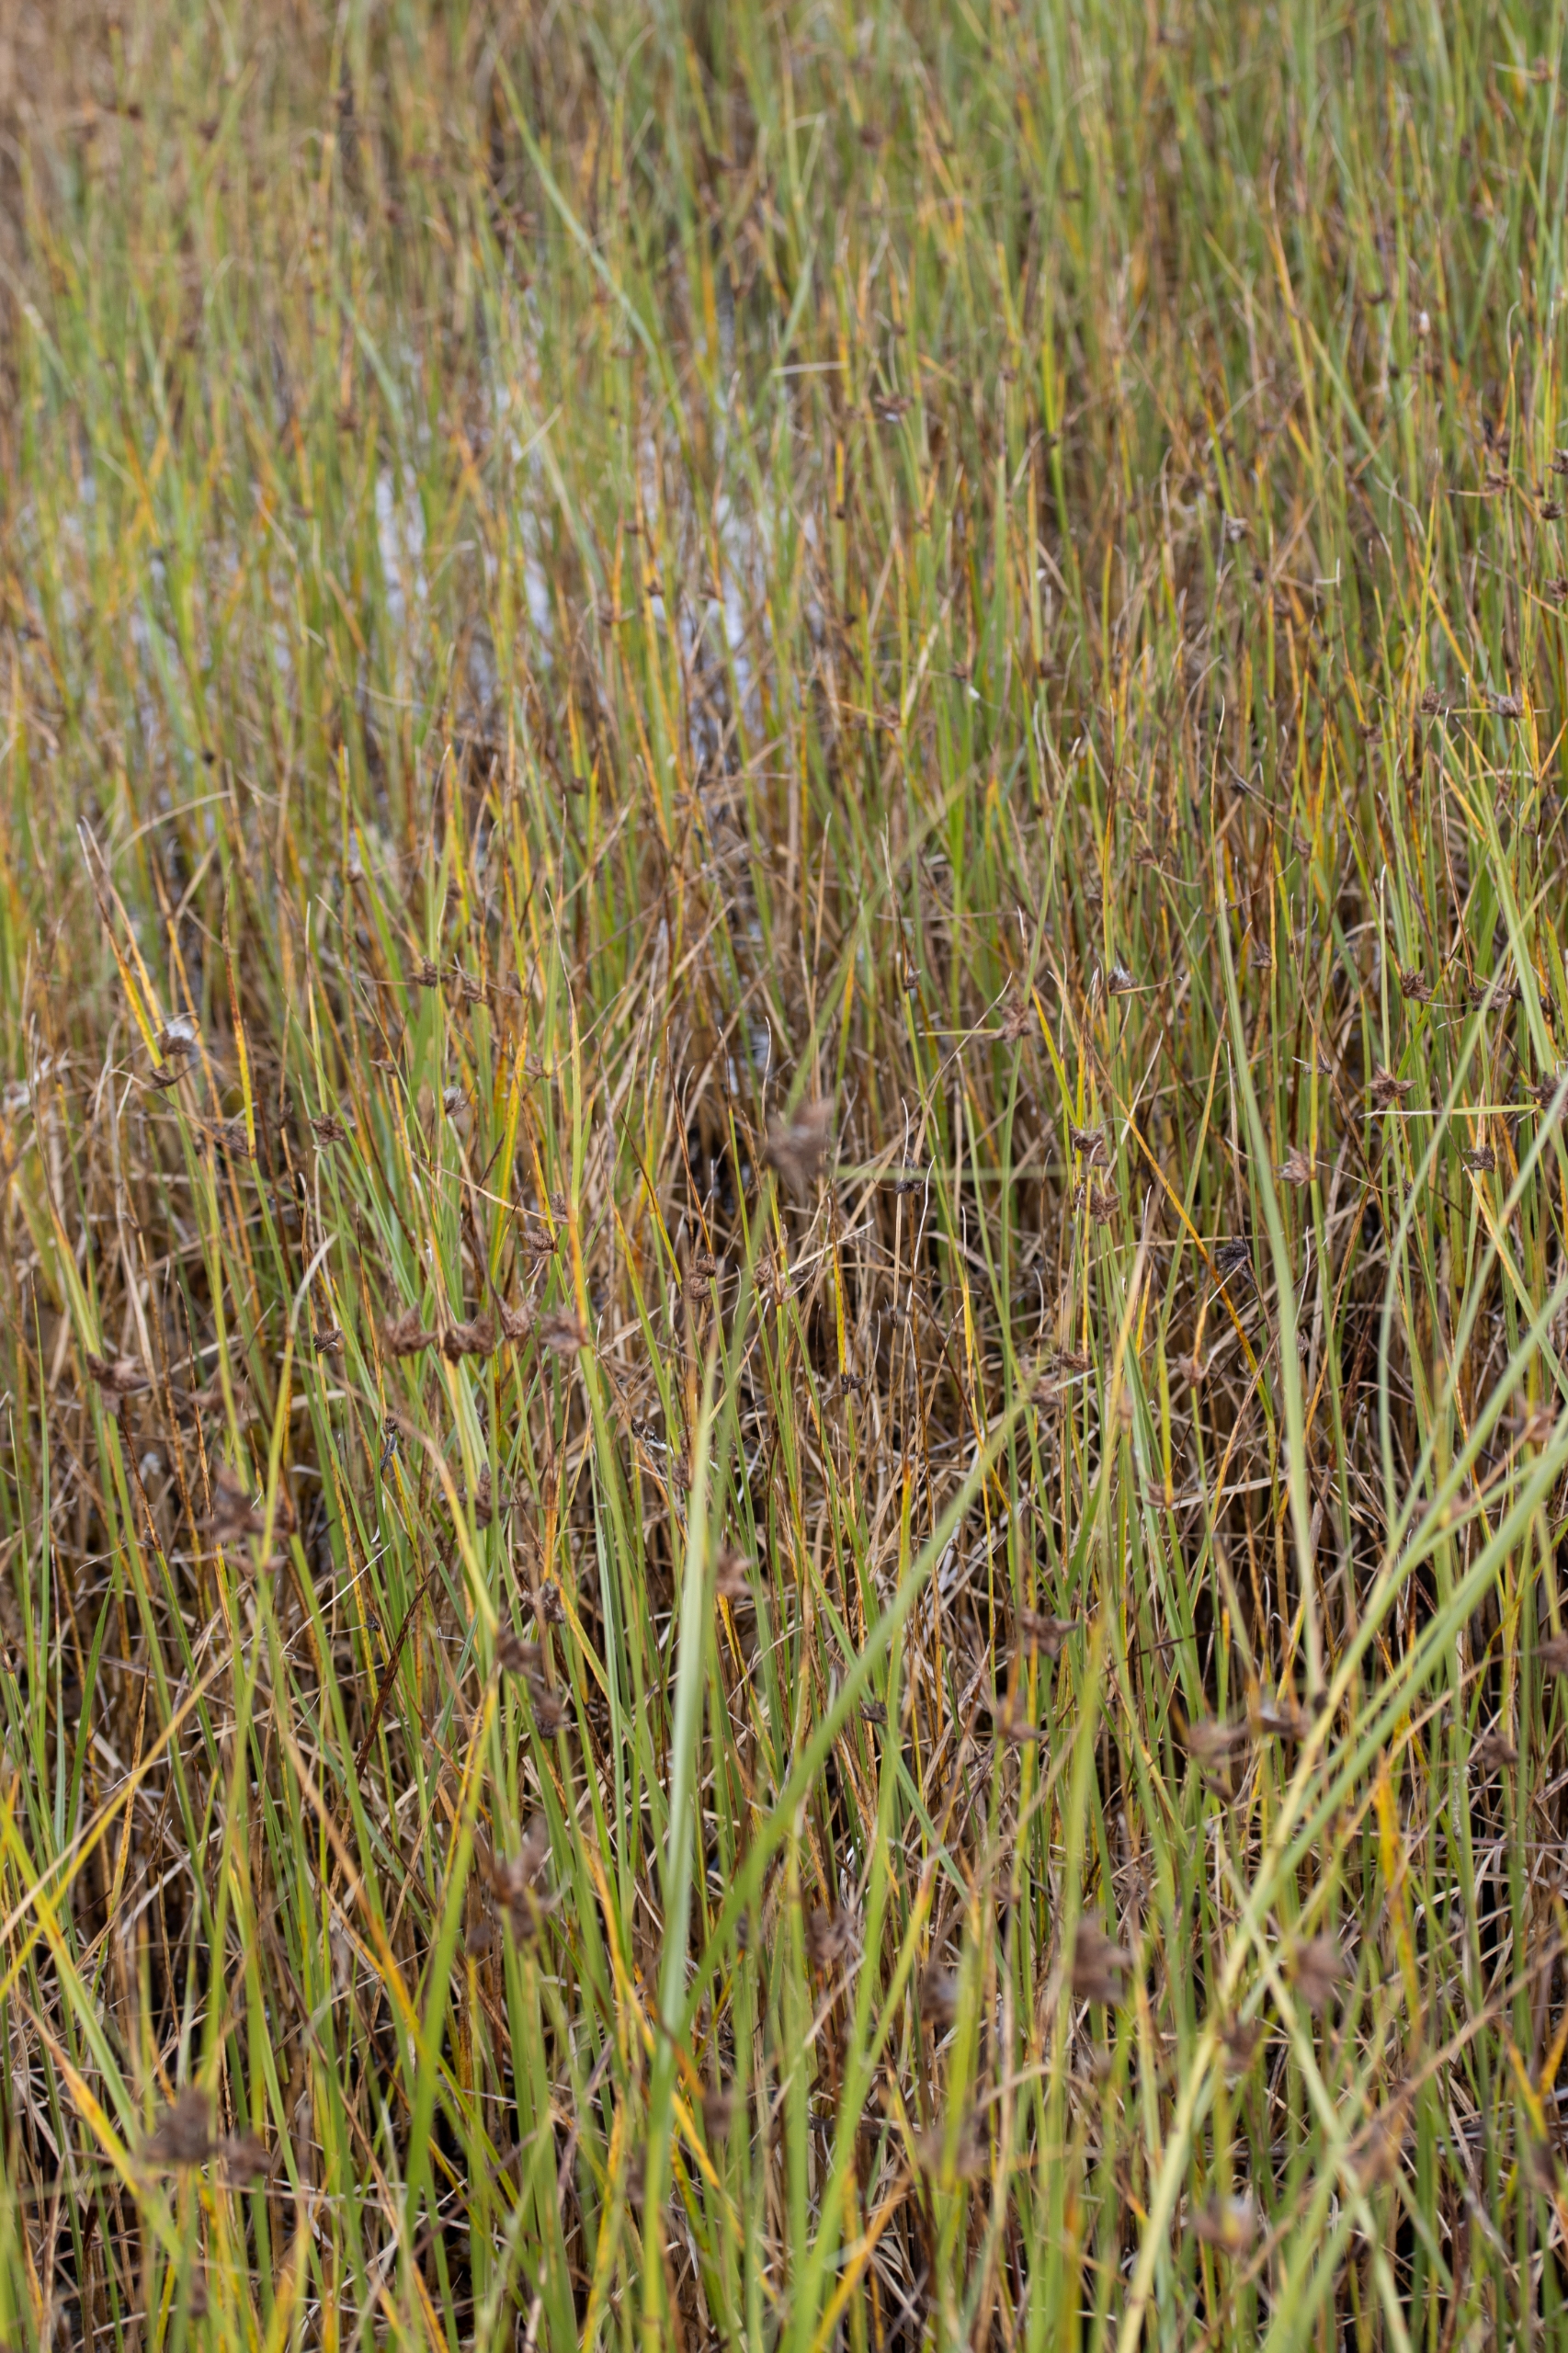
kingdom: Plantae
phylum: Tracheophyta
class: Liliopsida
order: Poales
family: Cyperaceae
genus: Bolboschoenus
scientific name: Bolboschoenus maritimus
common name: Strand-kogleaks
